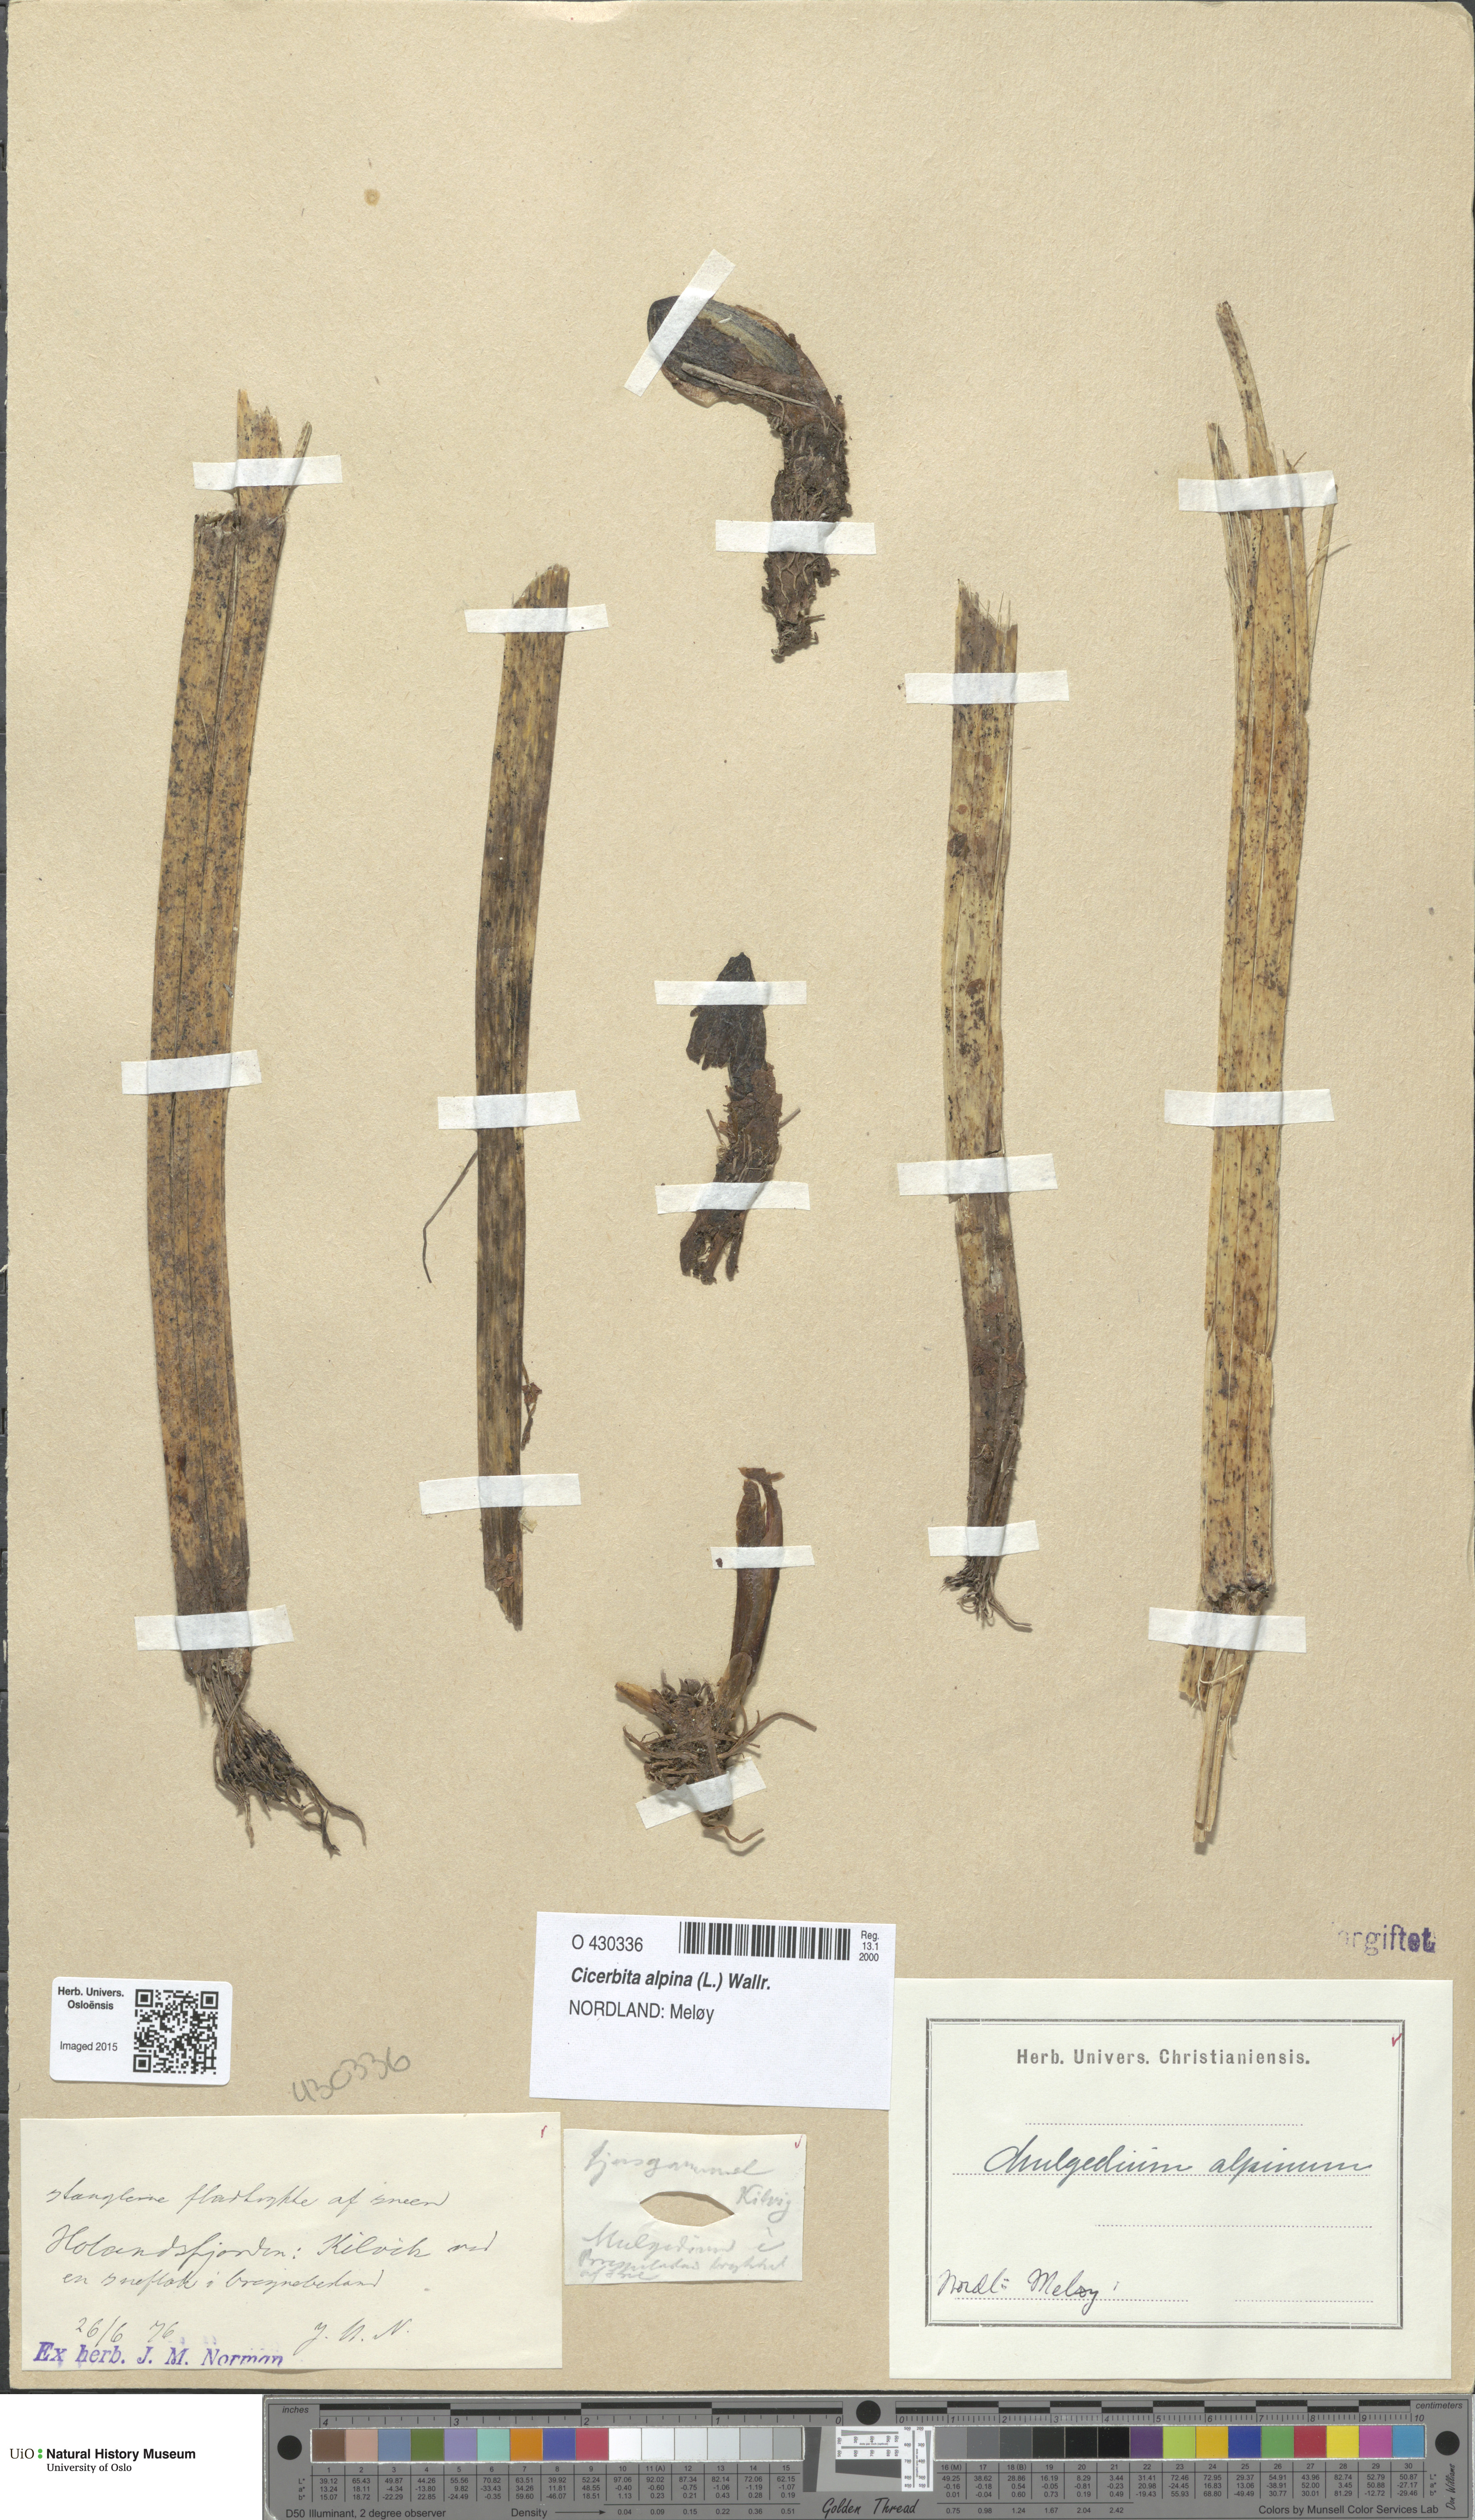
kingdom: Plantae
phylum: Tracheophyta
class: Magnoliopsida
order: Asterales
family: Asteraceae
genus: Cicerbita
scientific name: Cicerbita alpina
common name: Alpine blue-sow-thistle
